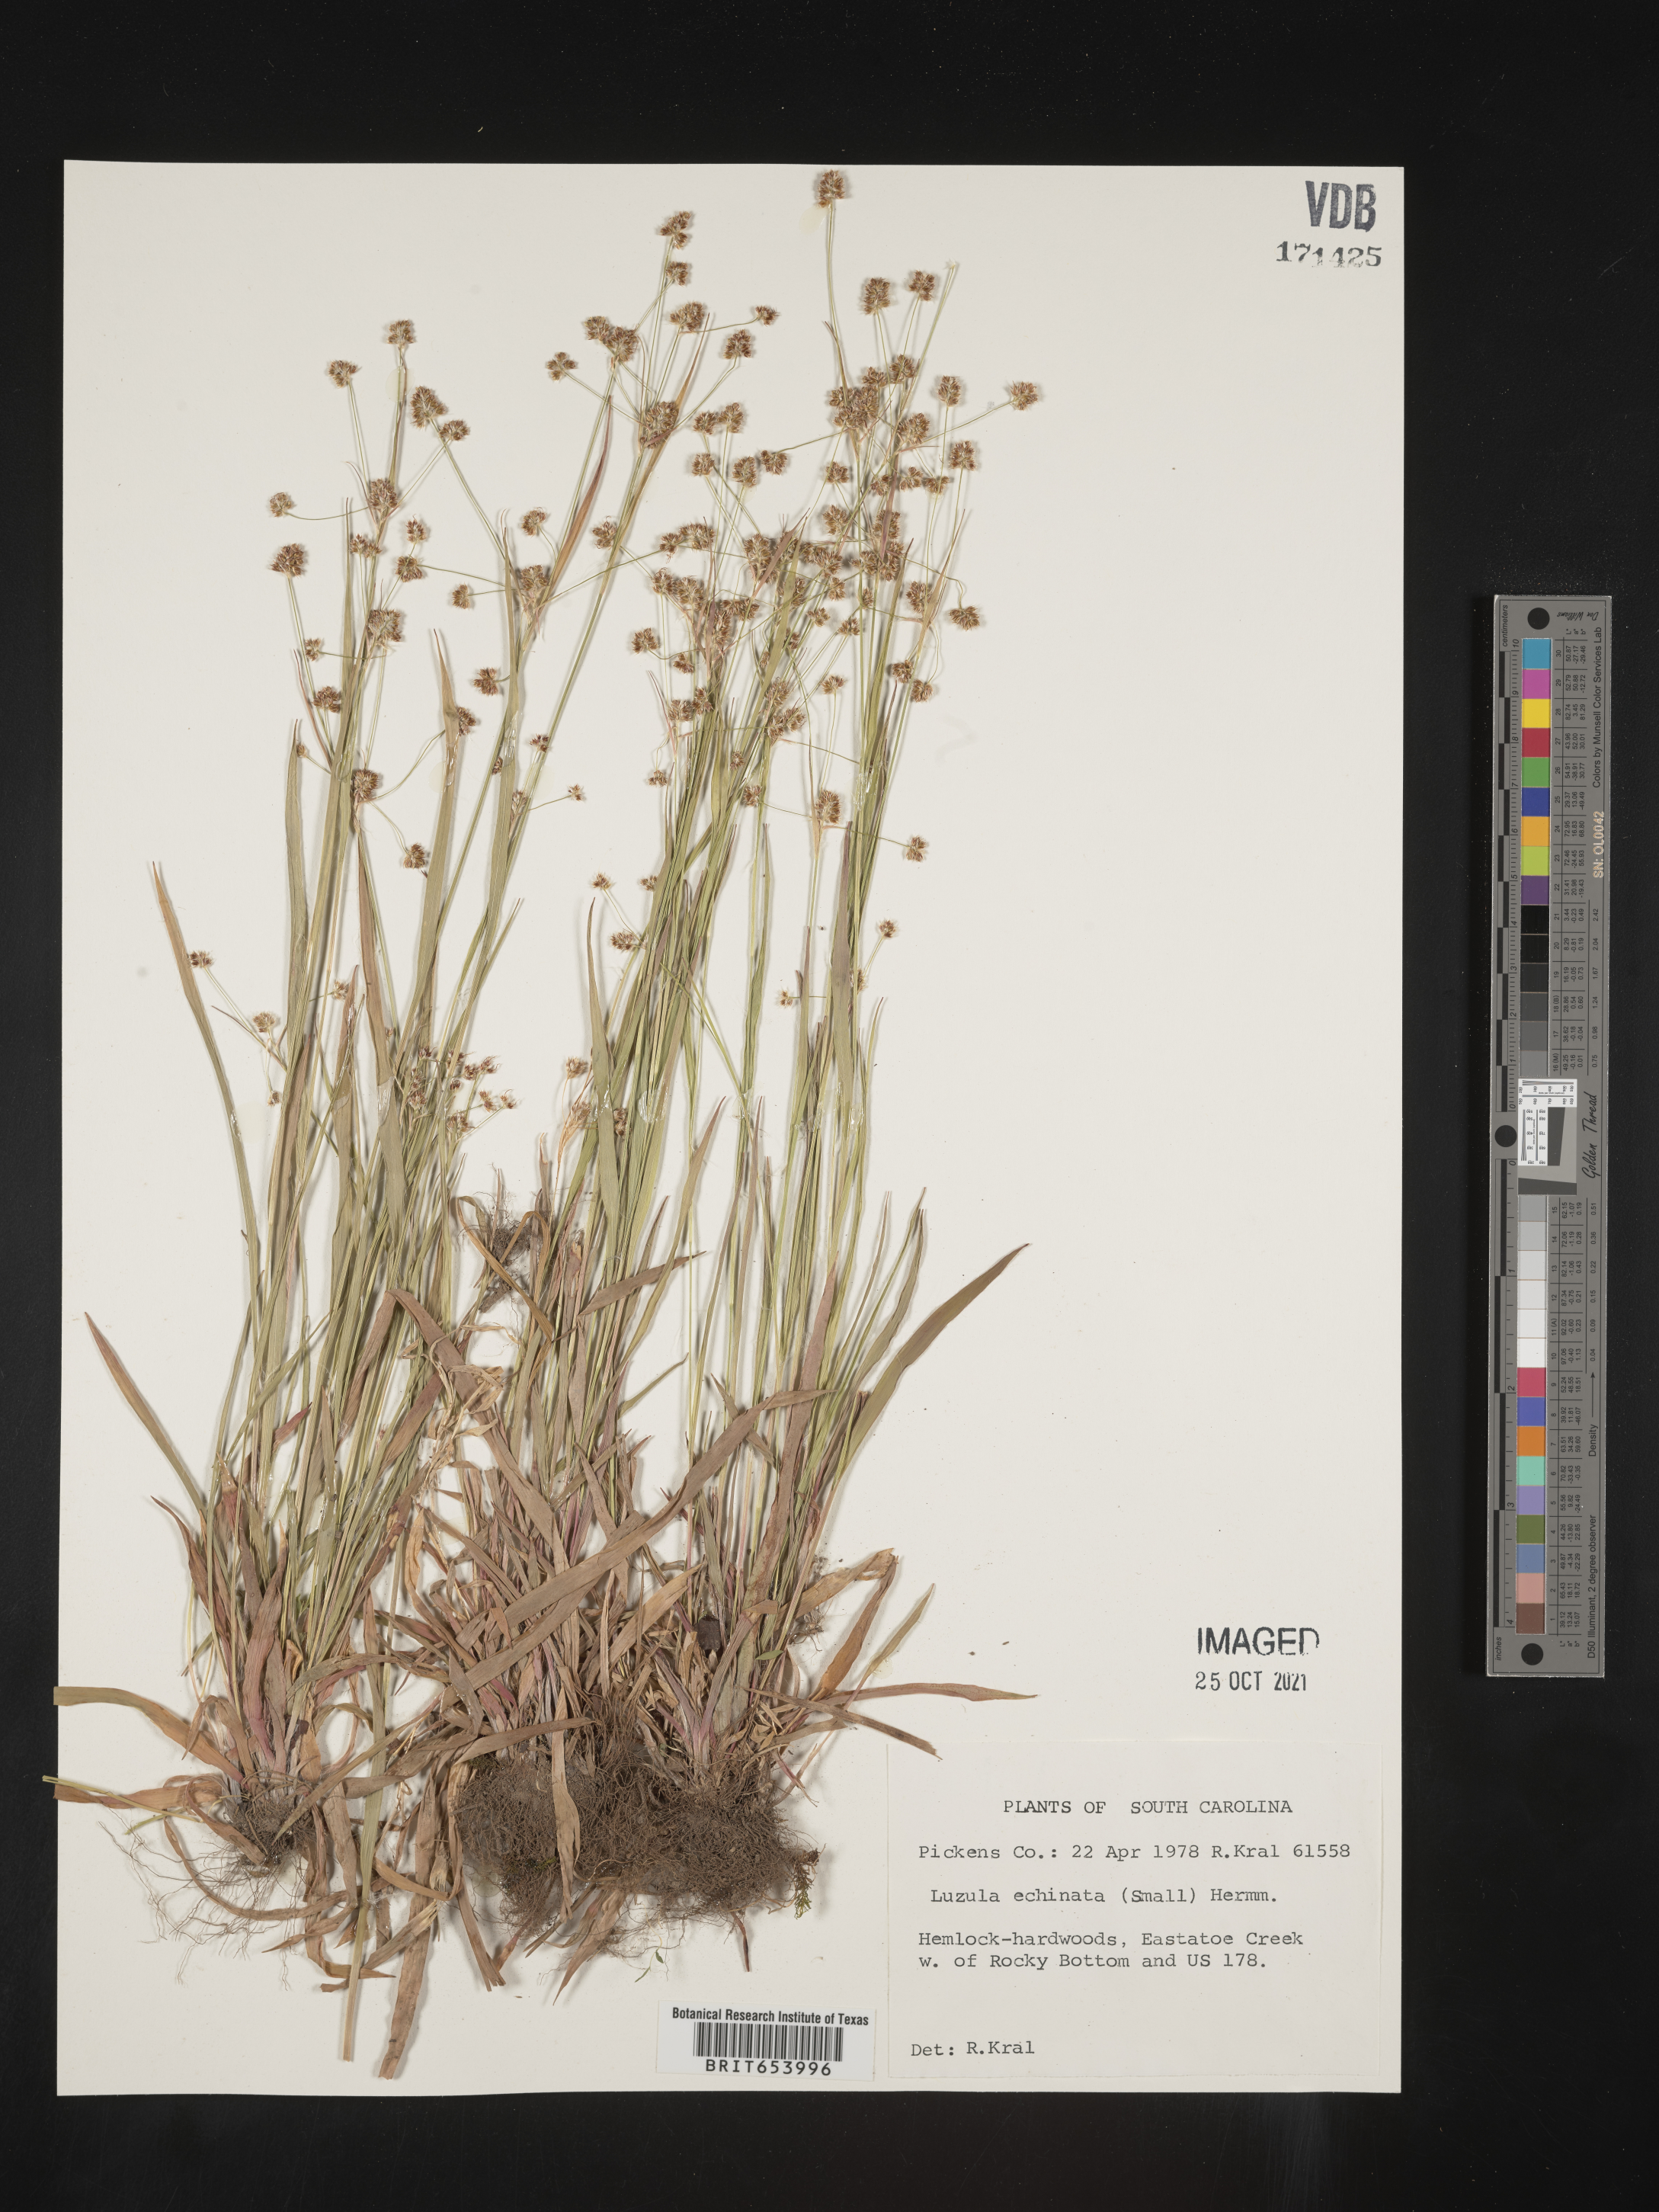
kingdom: Plantae
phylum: Tracheophyta
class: Liliopsida
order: Poales
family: Juncaceae
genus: Luzula
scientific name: Luzula echinata
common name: Hedgehog woodrush
